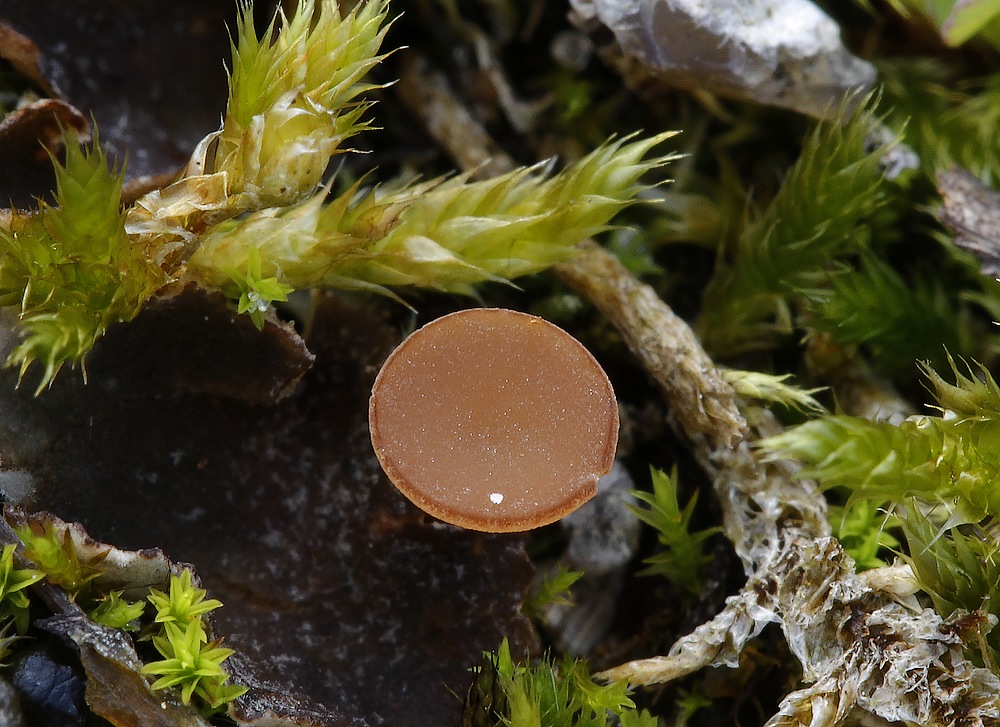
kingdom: Fungi
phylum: Ascomycota
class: Leotiomycetes
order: Helotiales
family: Sclerotiniaceae
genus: Sclerotinia
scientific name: Sclerotinia trifoliorum
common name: ærte-knoldskive
